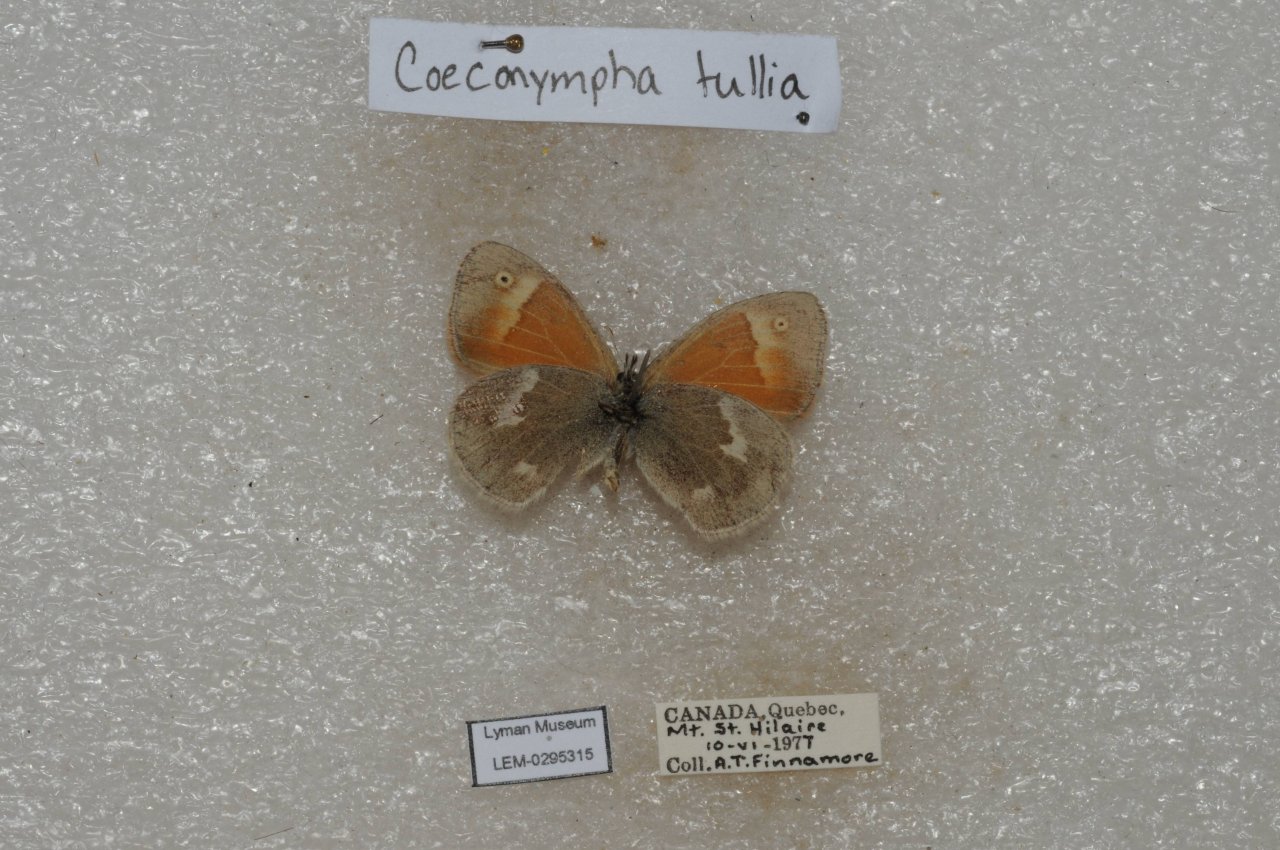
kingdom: Animalia
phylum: Arthropoda
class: Insecta
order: Lepidoptera
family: Nymphalidae
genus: Coenonympha
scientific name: Coenonympha tullia
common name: Large Heath
